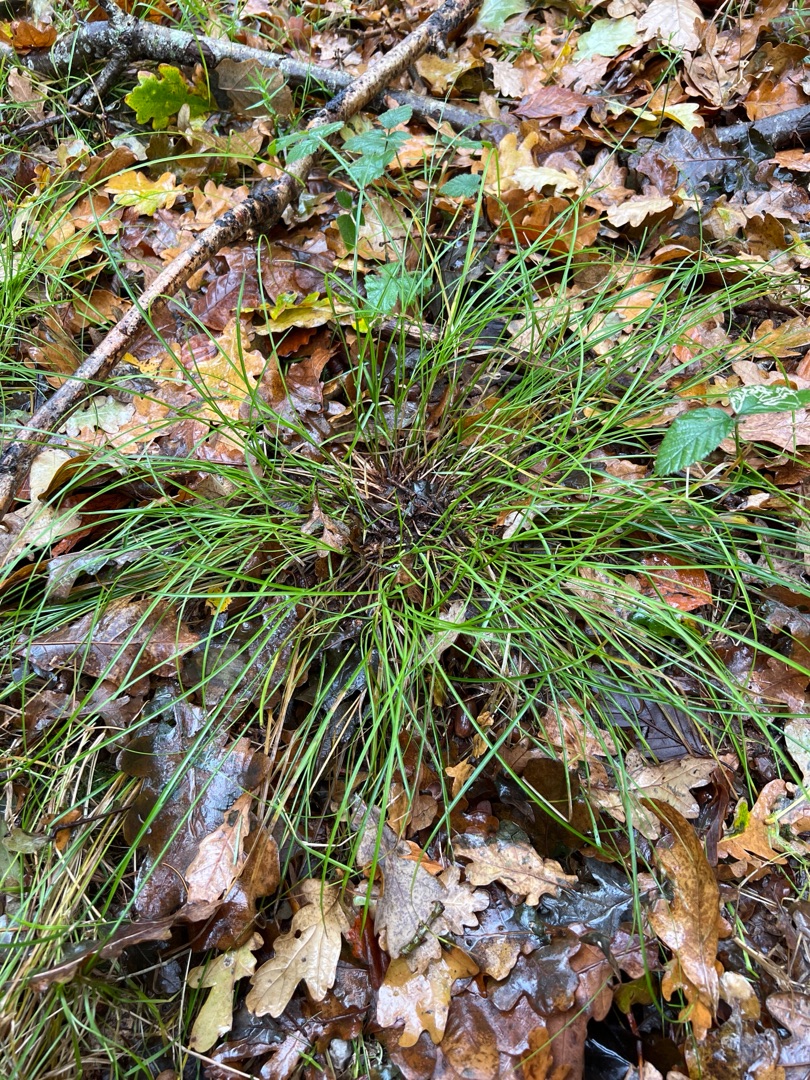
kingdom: Plantae
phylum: Tracheophyta
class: Liliopsida
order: Poales
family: Cyperaceae
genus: Carex
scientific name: Carex remota
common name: Akselblomstret star
